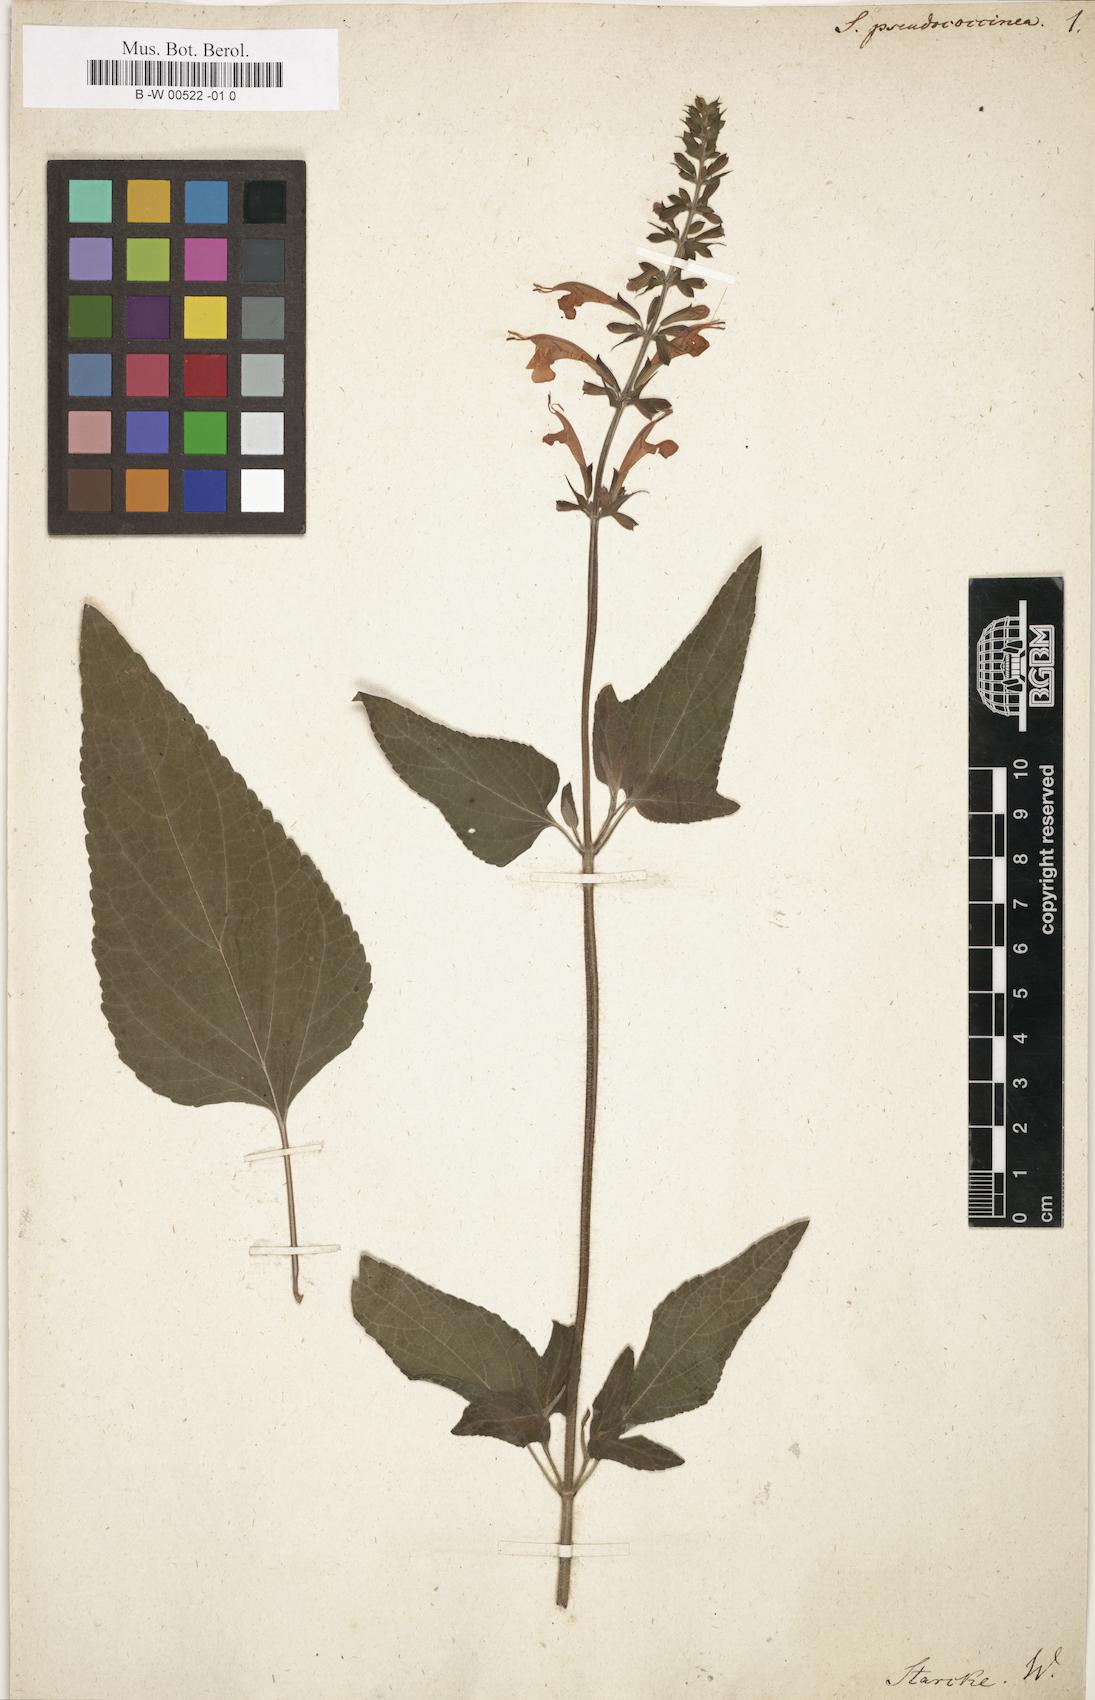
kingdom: Plantae
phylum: Tracheophyta
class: Magnoliopsida
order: Lamiales
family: Lamiaceae
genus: Salvia
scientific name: Salvia coccinea
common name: Blood sage
